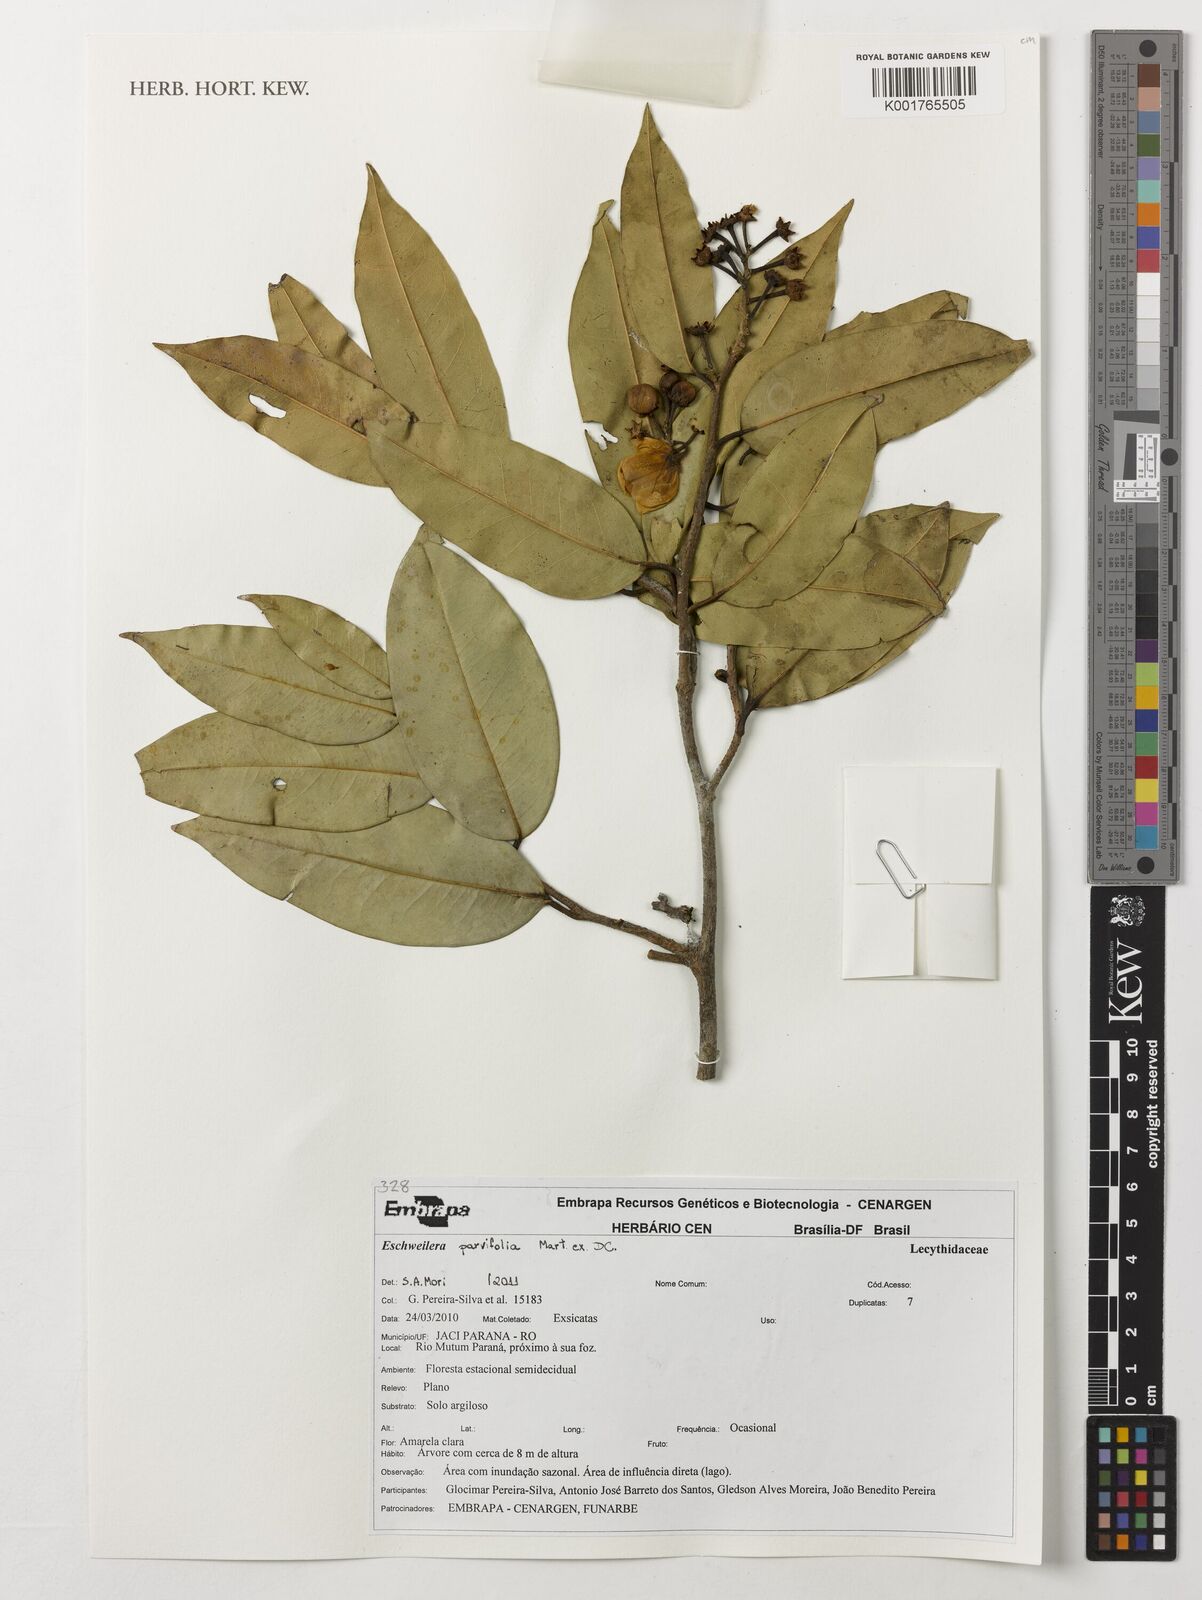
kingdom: Plantae
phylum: Tracheophyta
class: Magnoliopsida
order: Ericales
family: Lecythidaceae
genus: Eschweilera
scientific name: Eschweilera parvifolia
